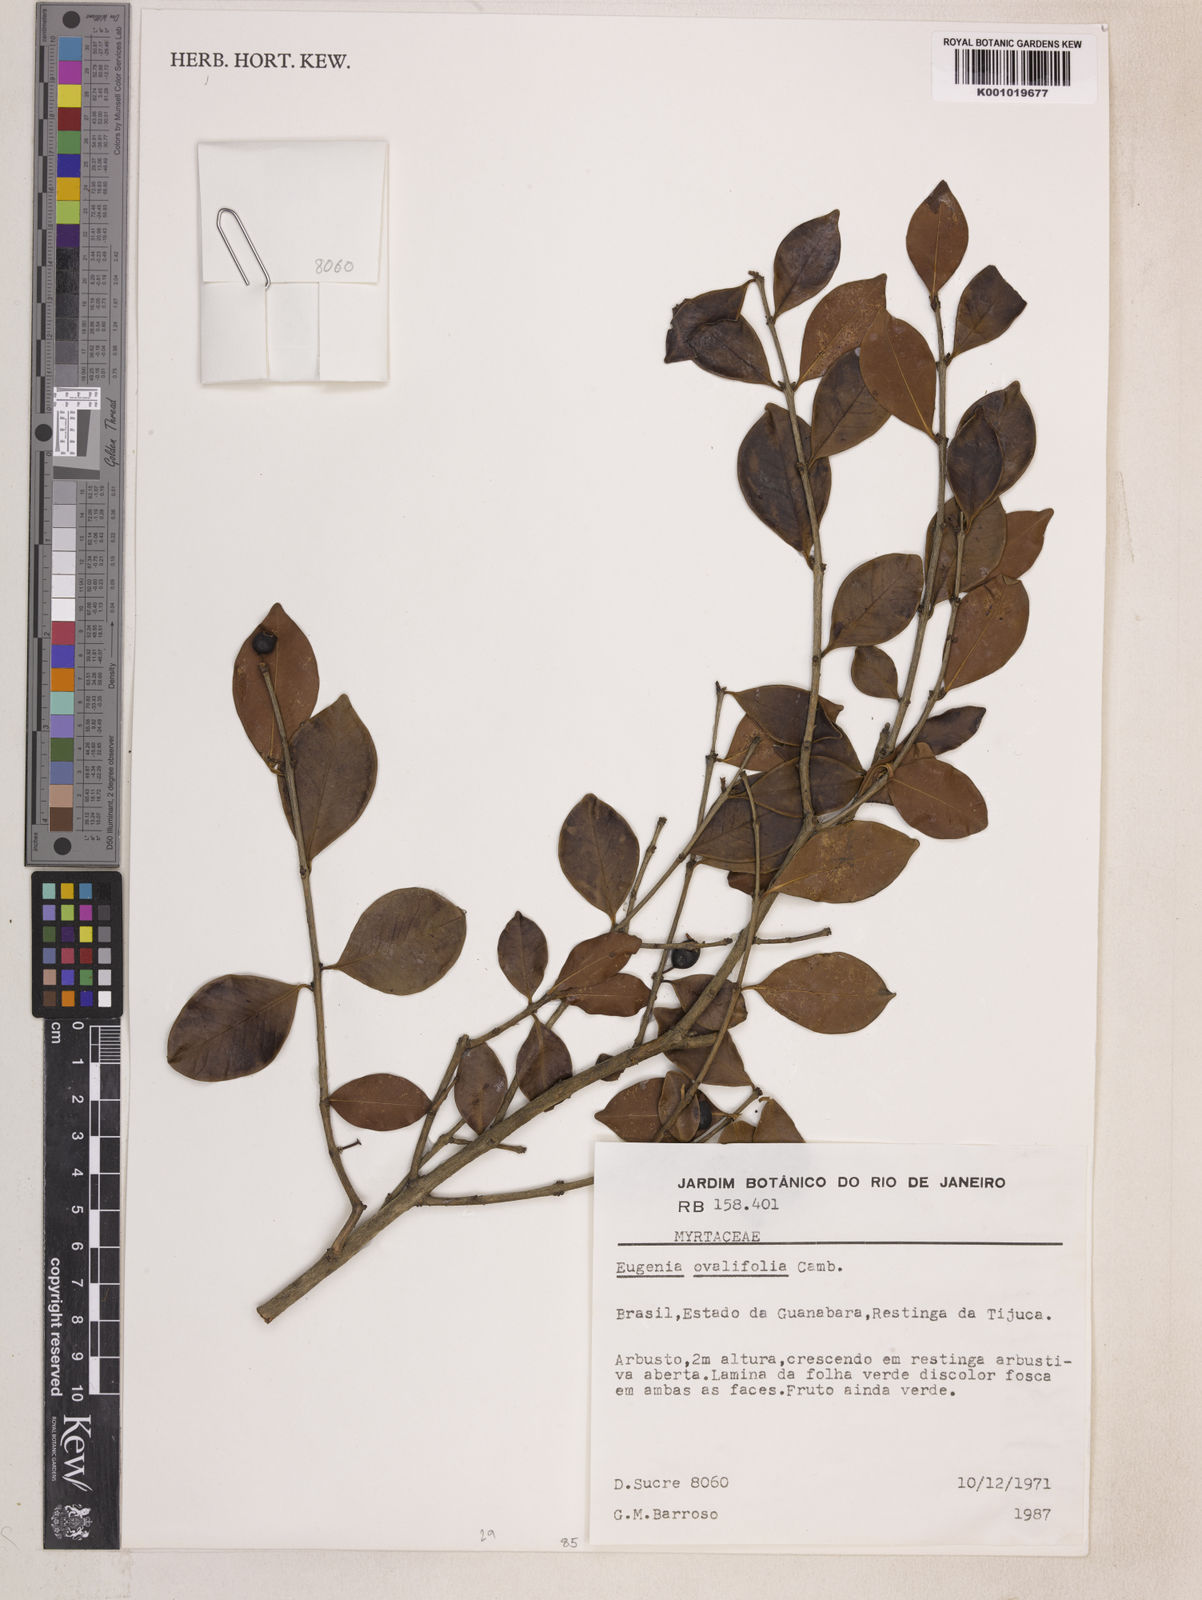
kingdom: Plantae
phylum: Tracheophyta
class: Magnoliopsida
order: Myrtales
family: Myrtaceae
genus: Eugenia
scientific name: Eugenia punicifolia
